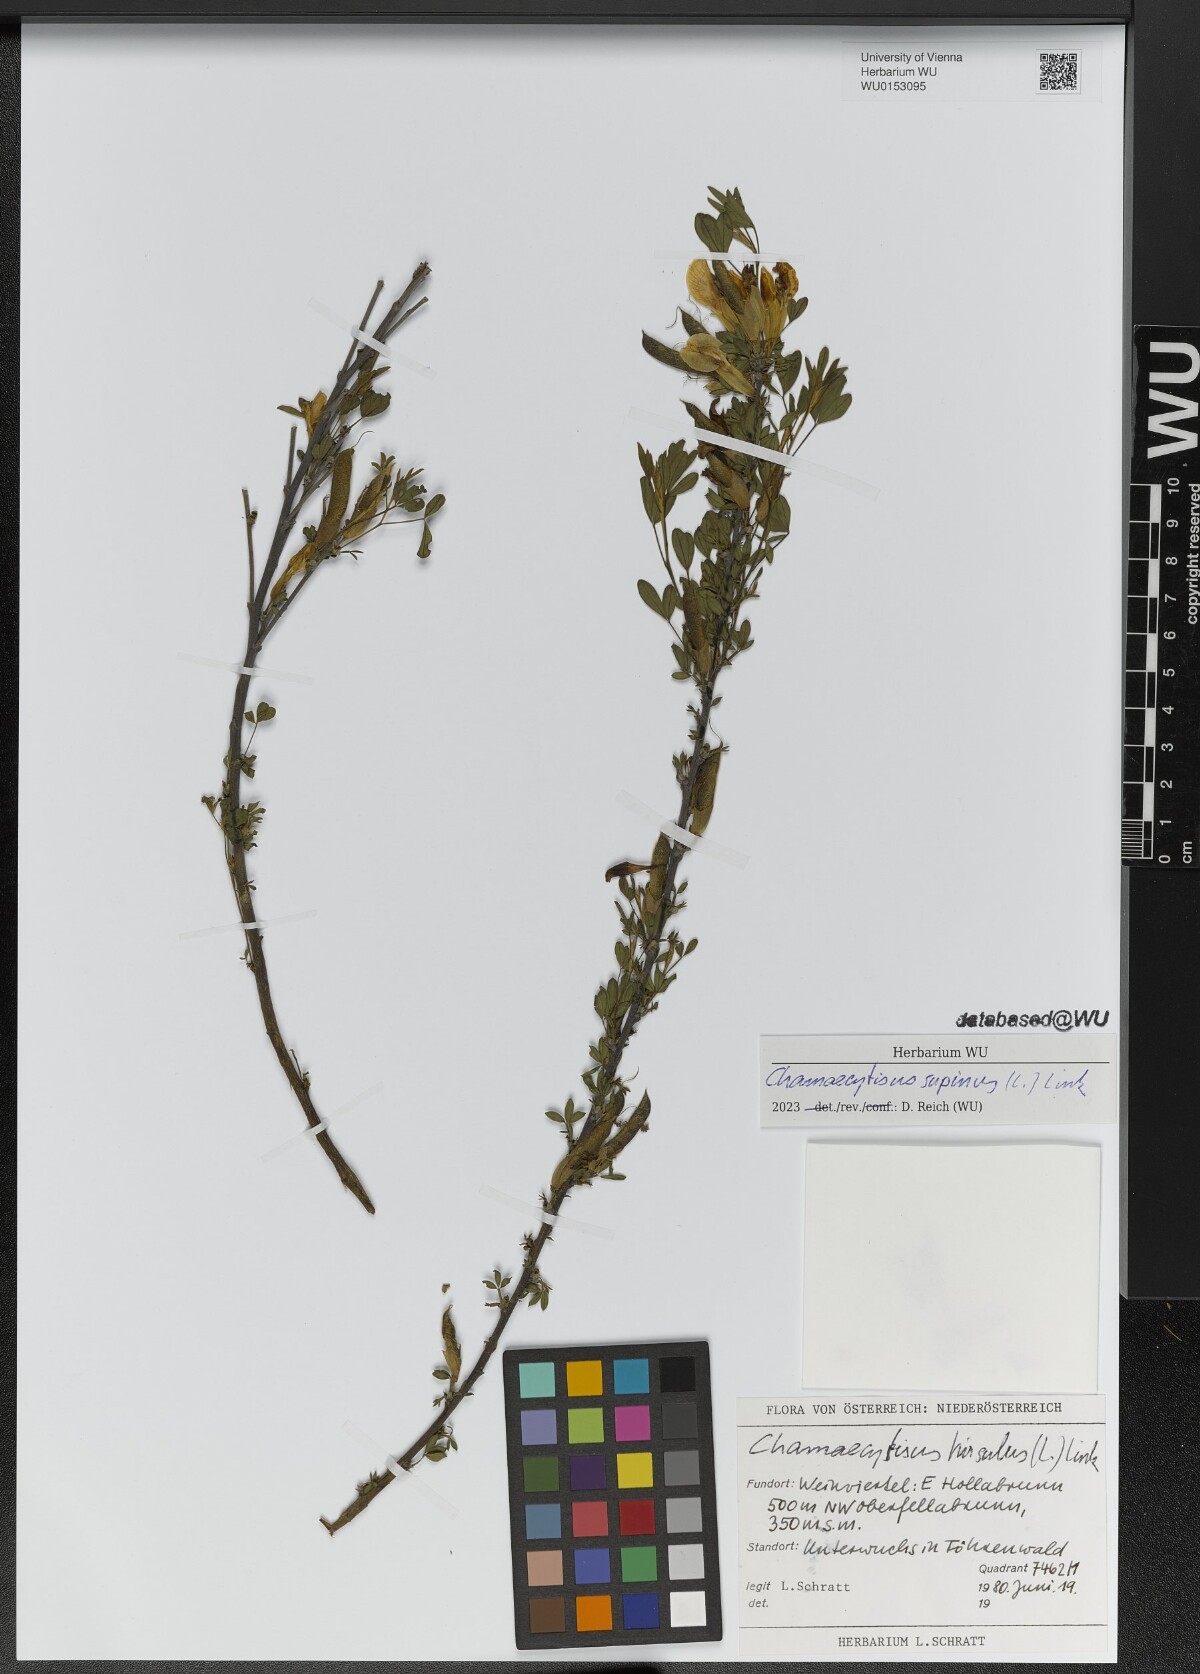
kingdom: Plantae
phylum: Tracheophyta
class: Magnoliopsida
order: Fabales
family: Fabaceae
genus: Chamaecytisus
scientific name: Chamaecytisus supinus
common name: Clustered broom
